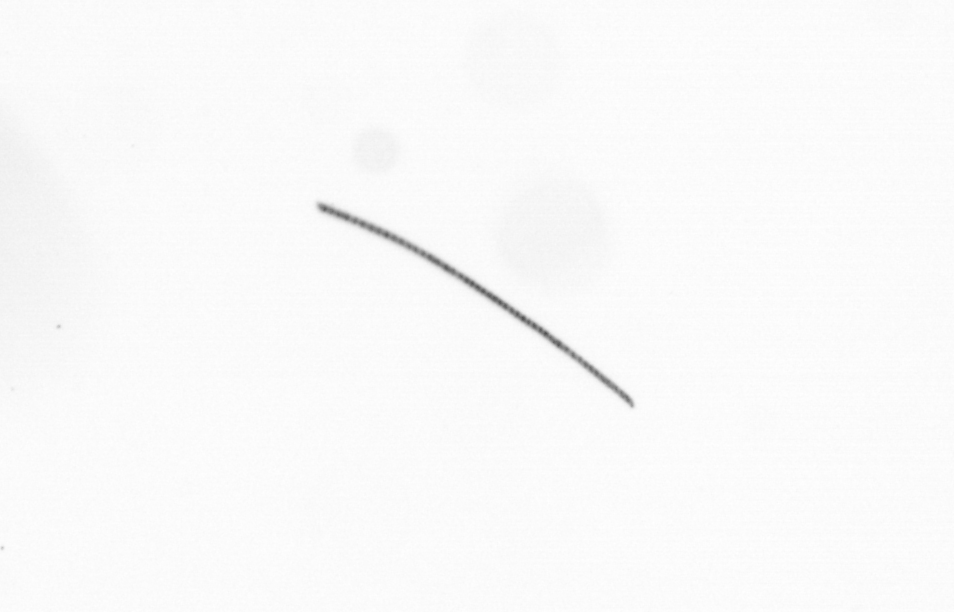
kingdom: Chromista
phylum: Ochrophyta
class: Bacillariophyceae
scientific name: Bacillariophyceae
